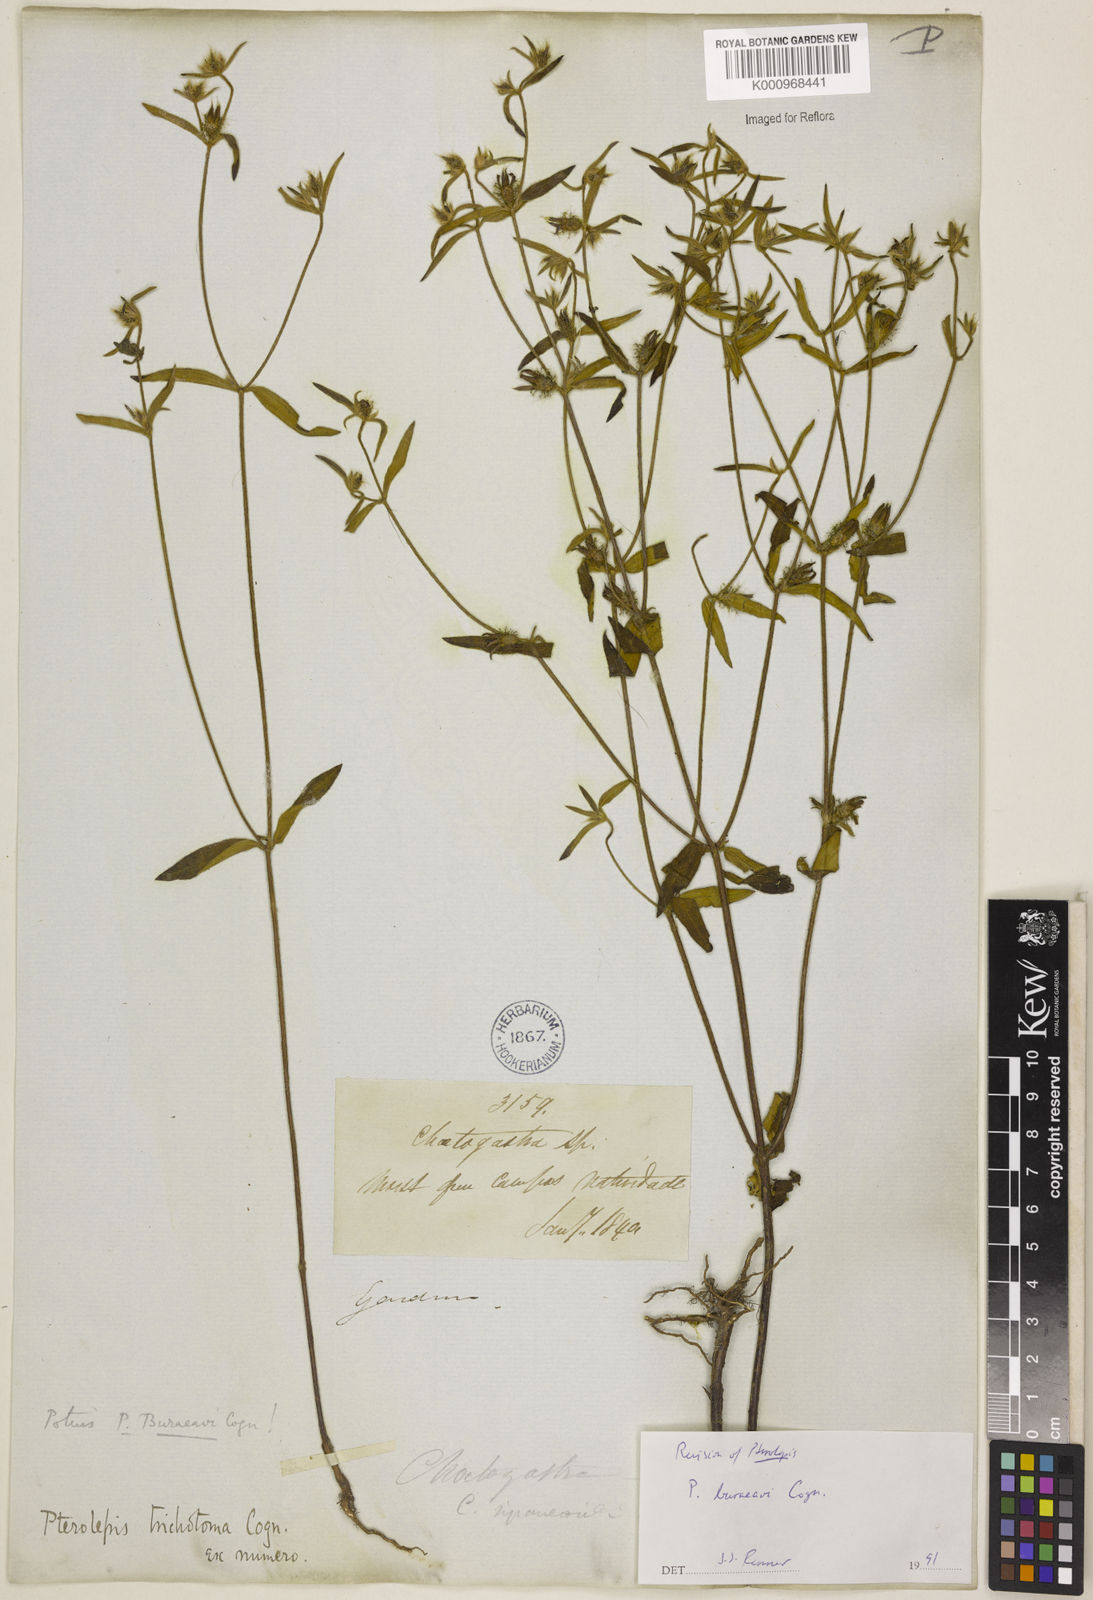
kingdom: Plantae
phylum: Tracheophyta
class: Magnoliopsida
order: Myrtales
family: Melastomataceae
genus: Pterolepis
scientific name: Pterolepis buraeavi
